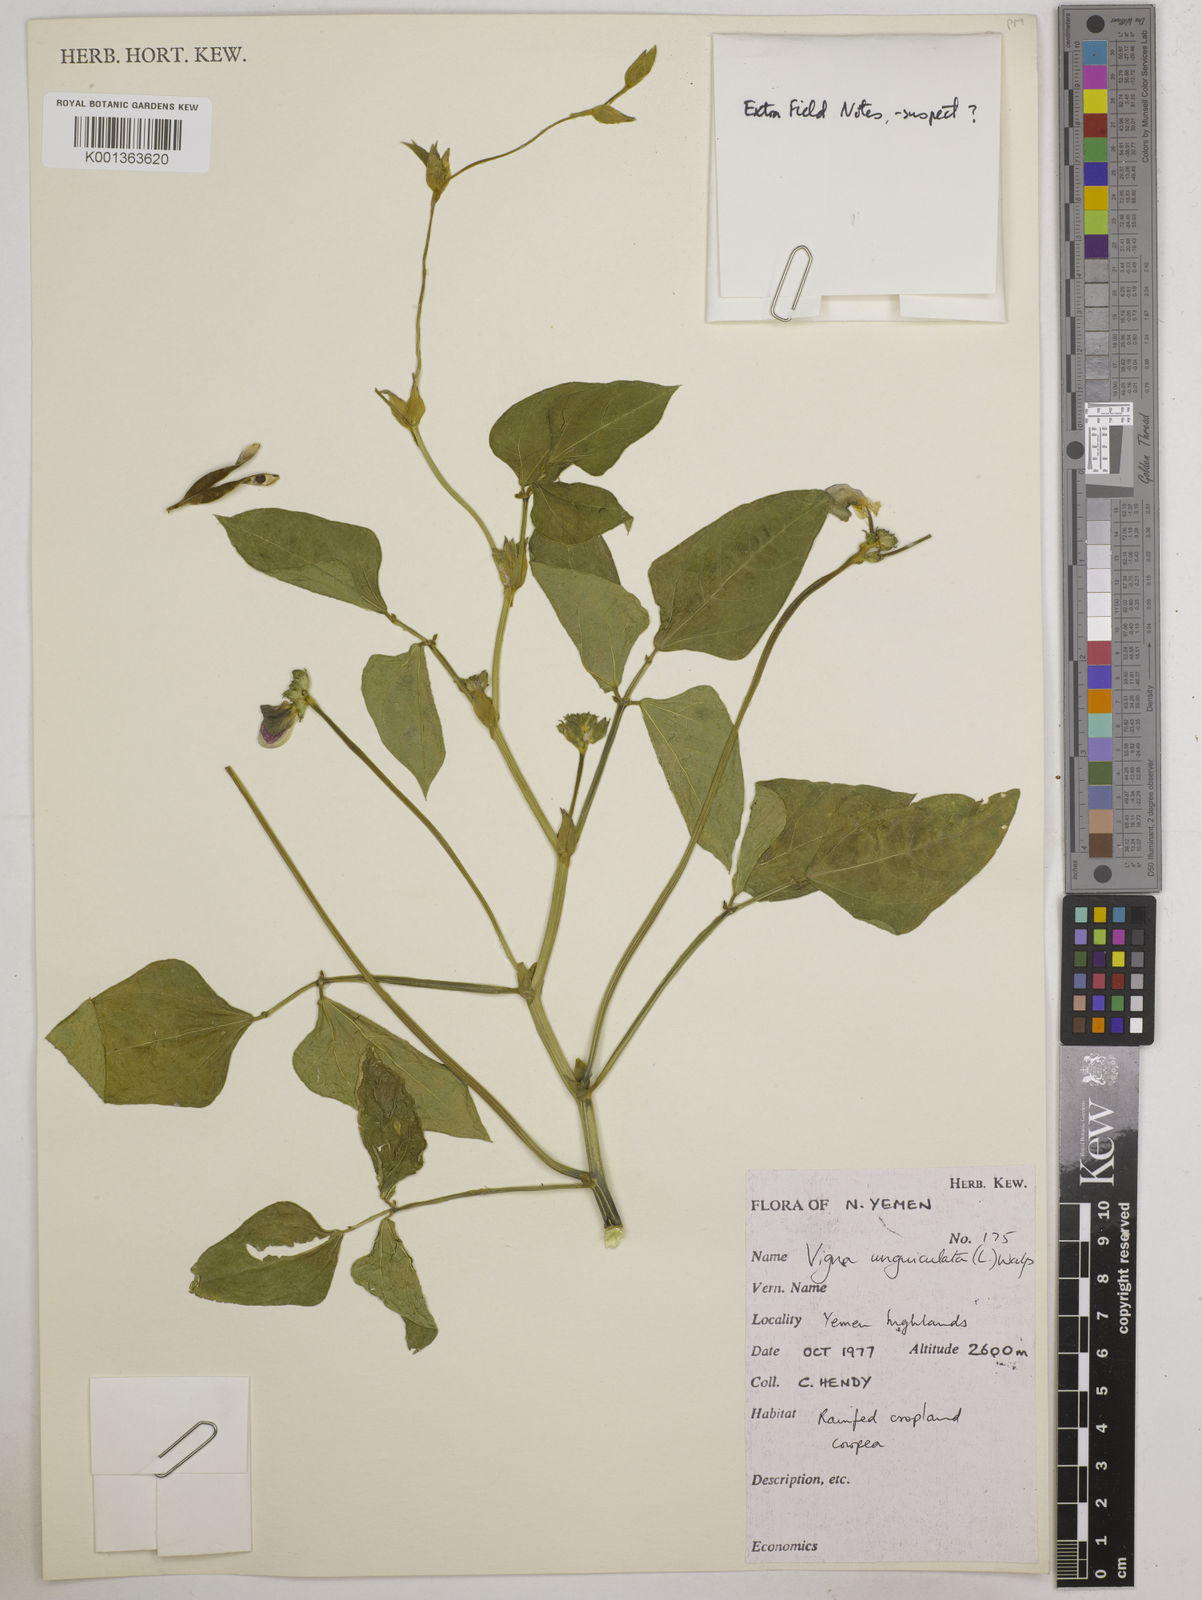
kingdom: Plantae
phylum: Tracheophyta
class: Magnoliopsida
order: Fabales
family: Fabaceae
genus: Vigna
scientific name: Vigna unguiculata
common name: Cowpea
